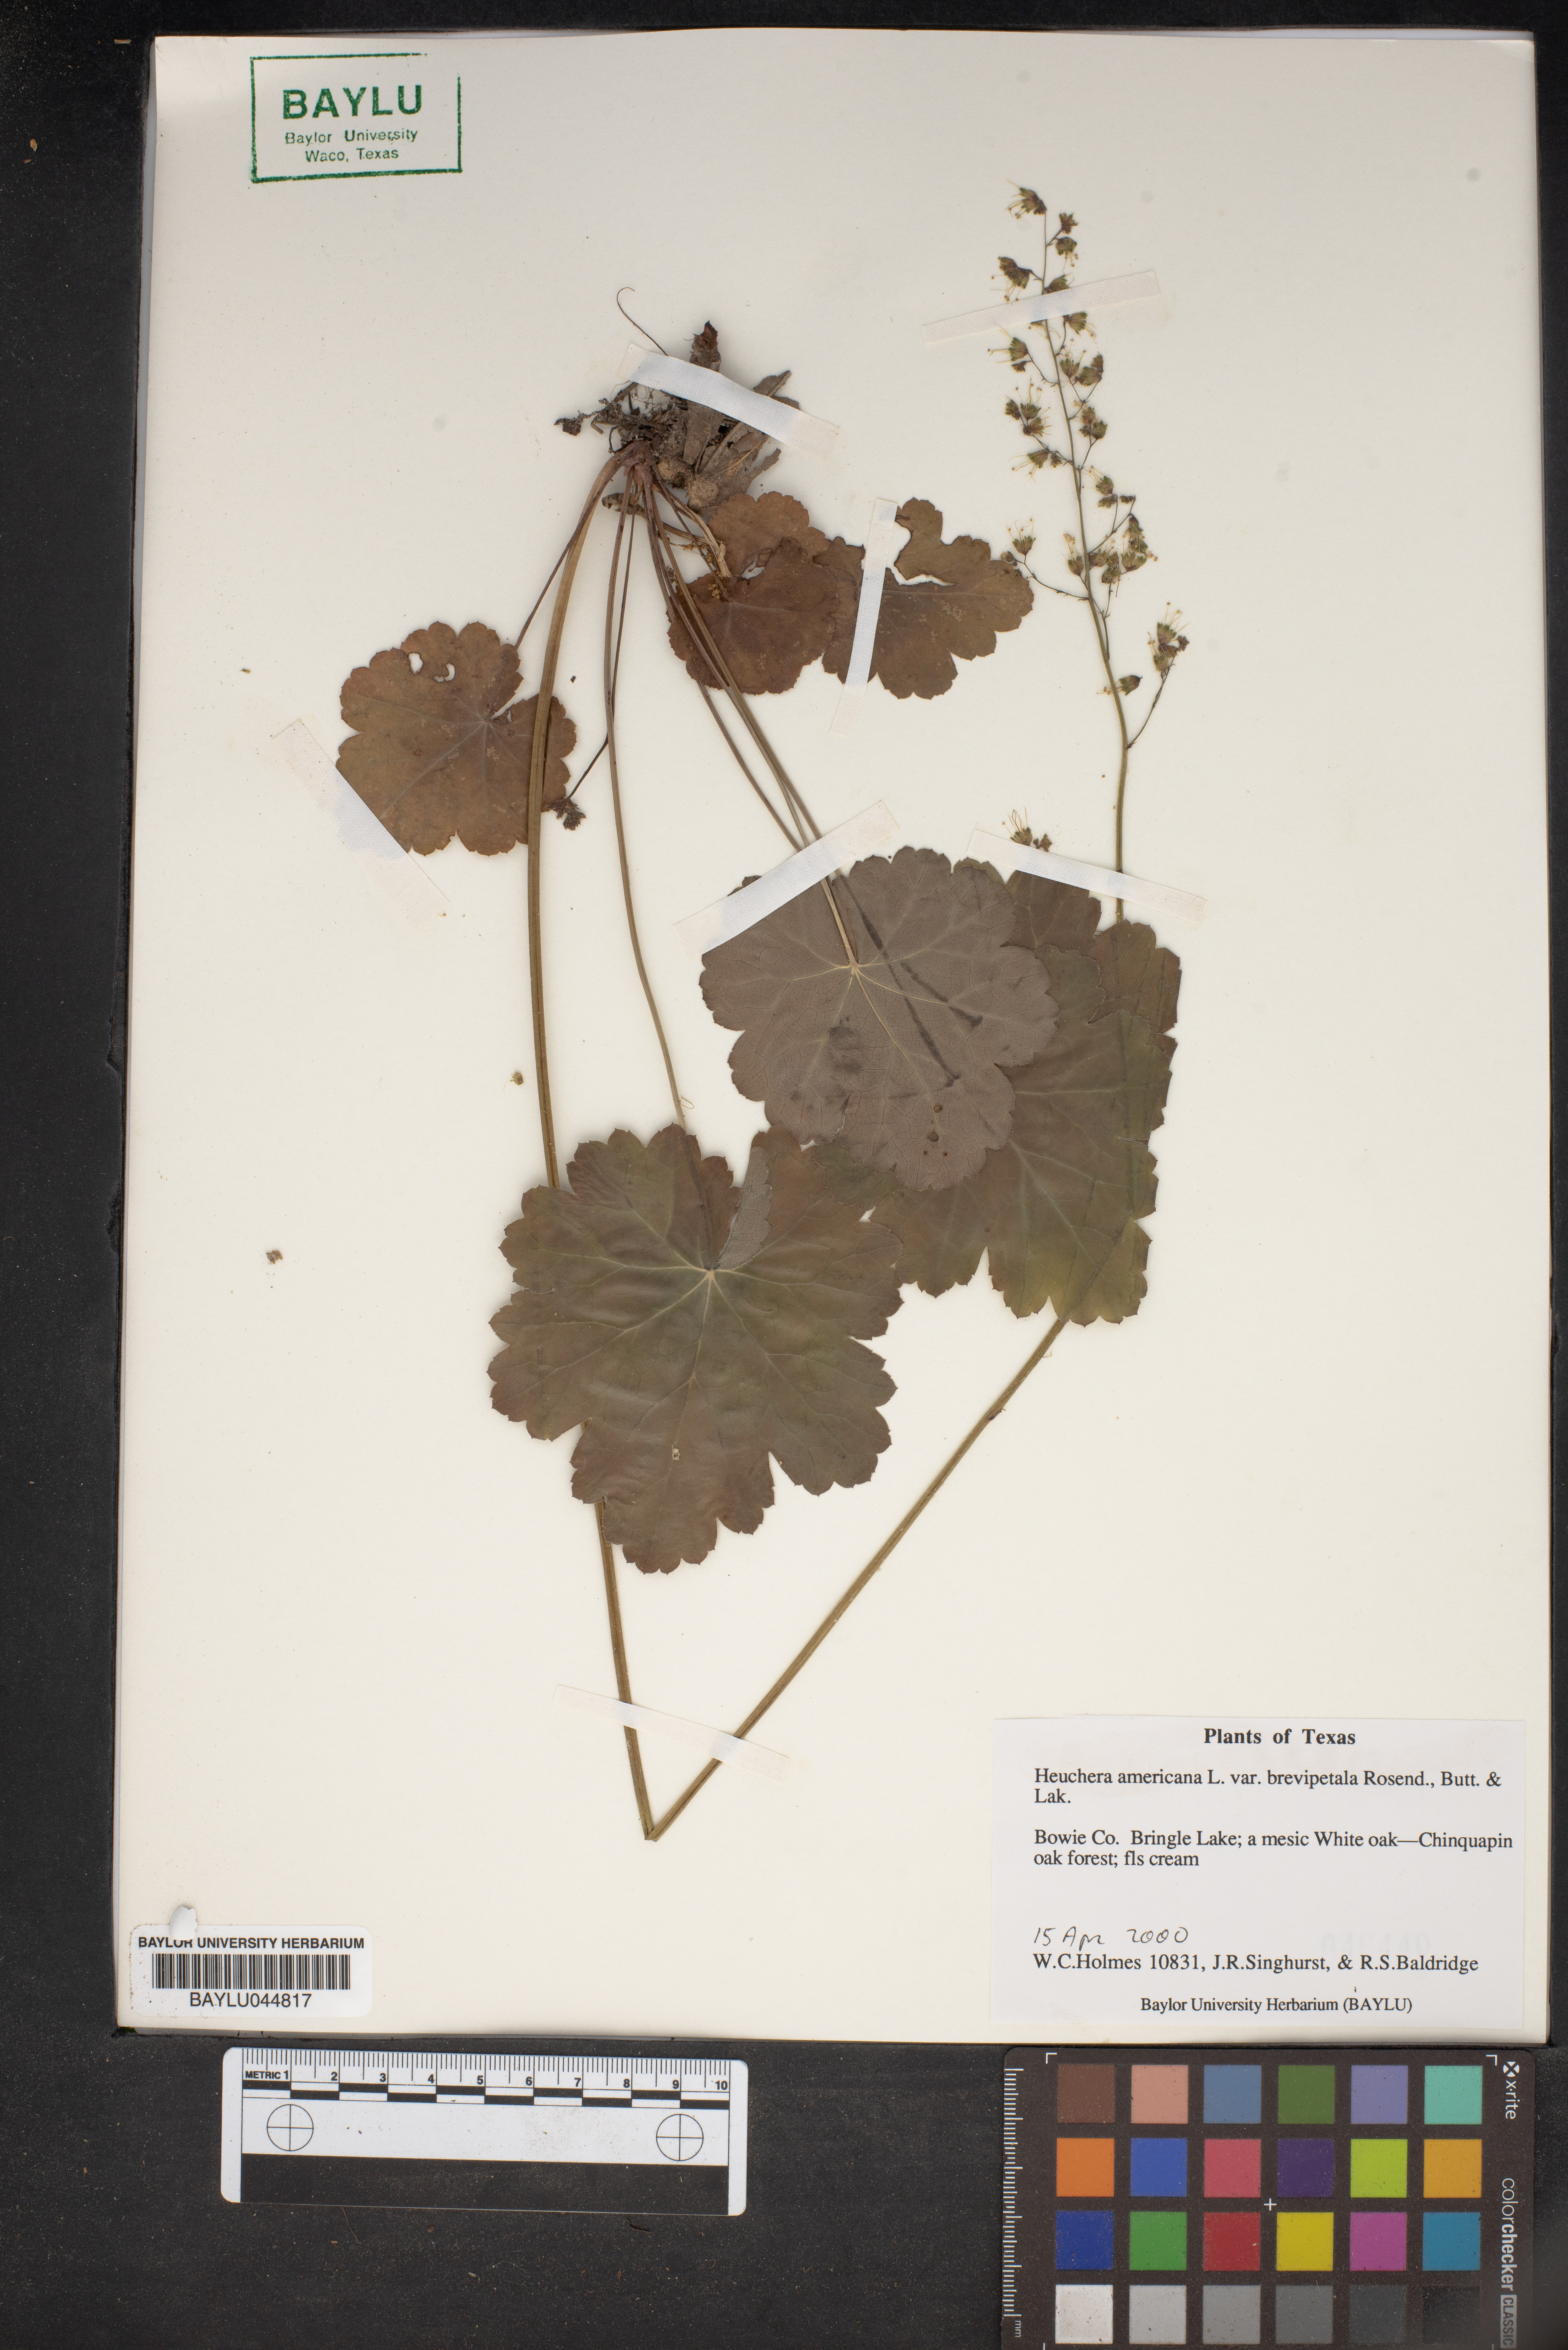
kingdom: Plantae
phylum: Tracheophyta
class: Magnoliopsida
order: Saxifragales
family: Saxifragaceae
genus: Heuchera
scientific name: Heuchera americana
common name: Alumroot
